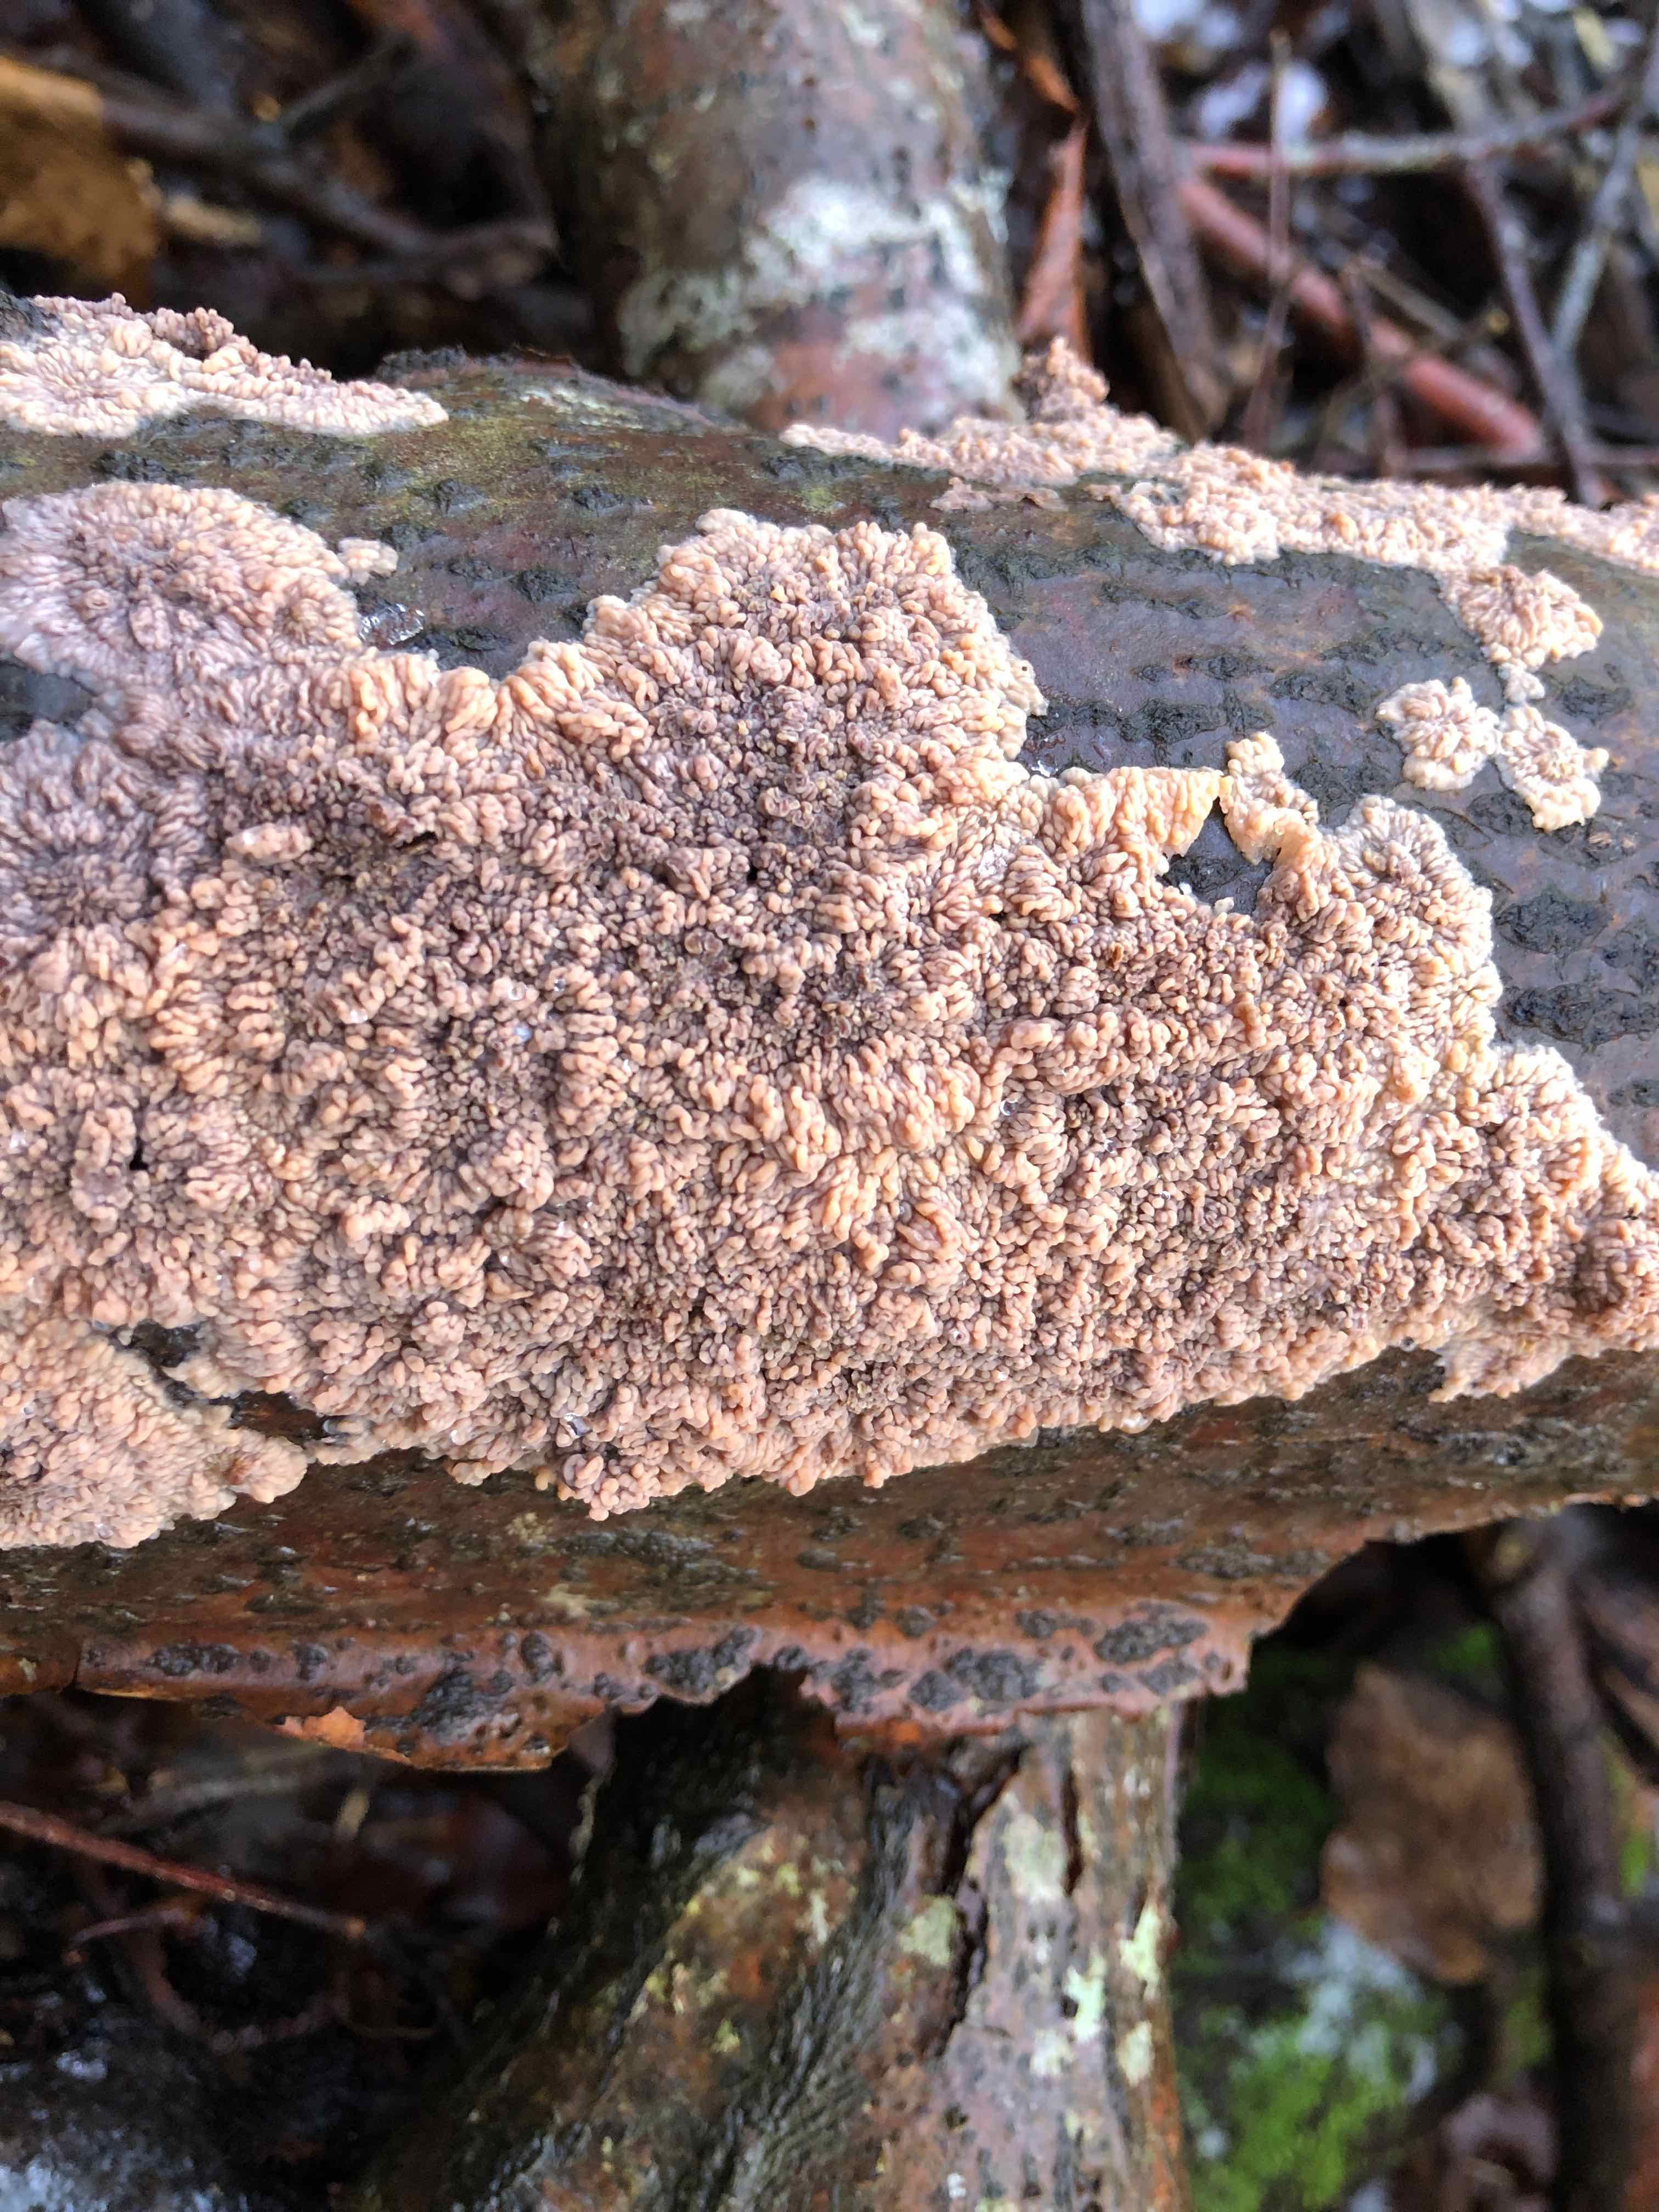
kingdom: Fungi
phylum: Basidiomycota
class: Agaricomycetes
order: Polyporales
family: Meruliaceae
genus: Phlebia
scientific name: Phlebia radiata
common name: stråle-åresvamp
